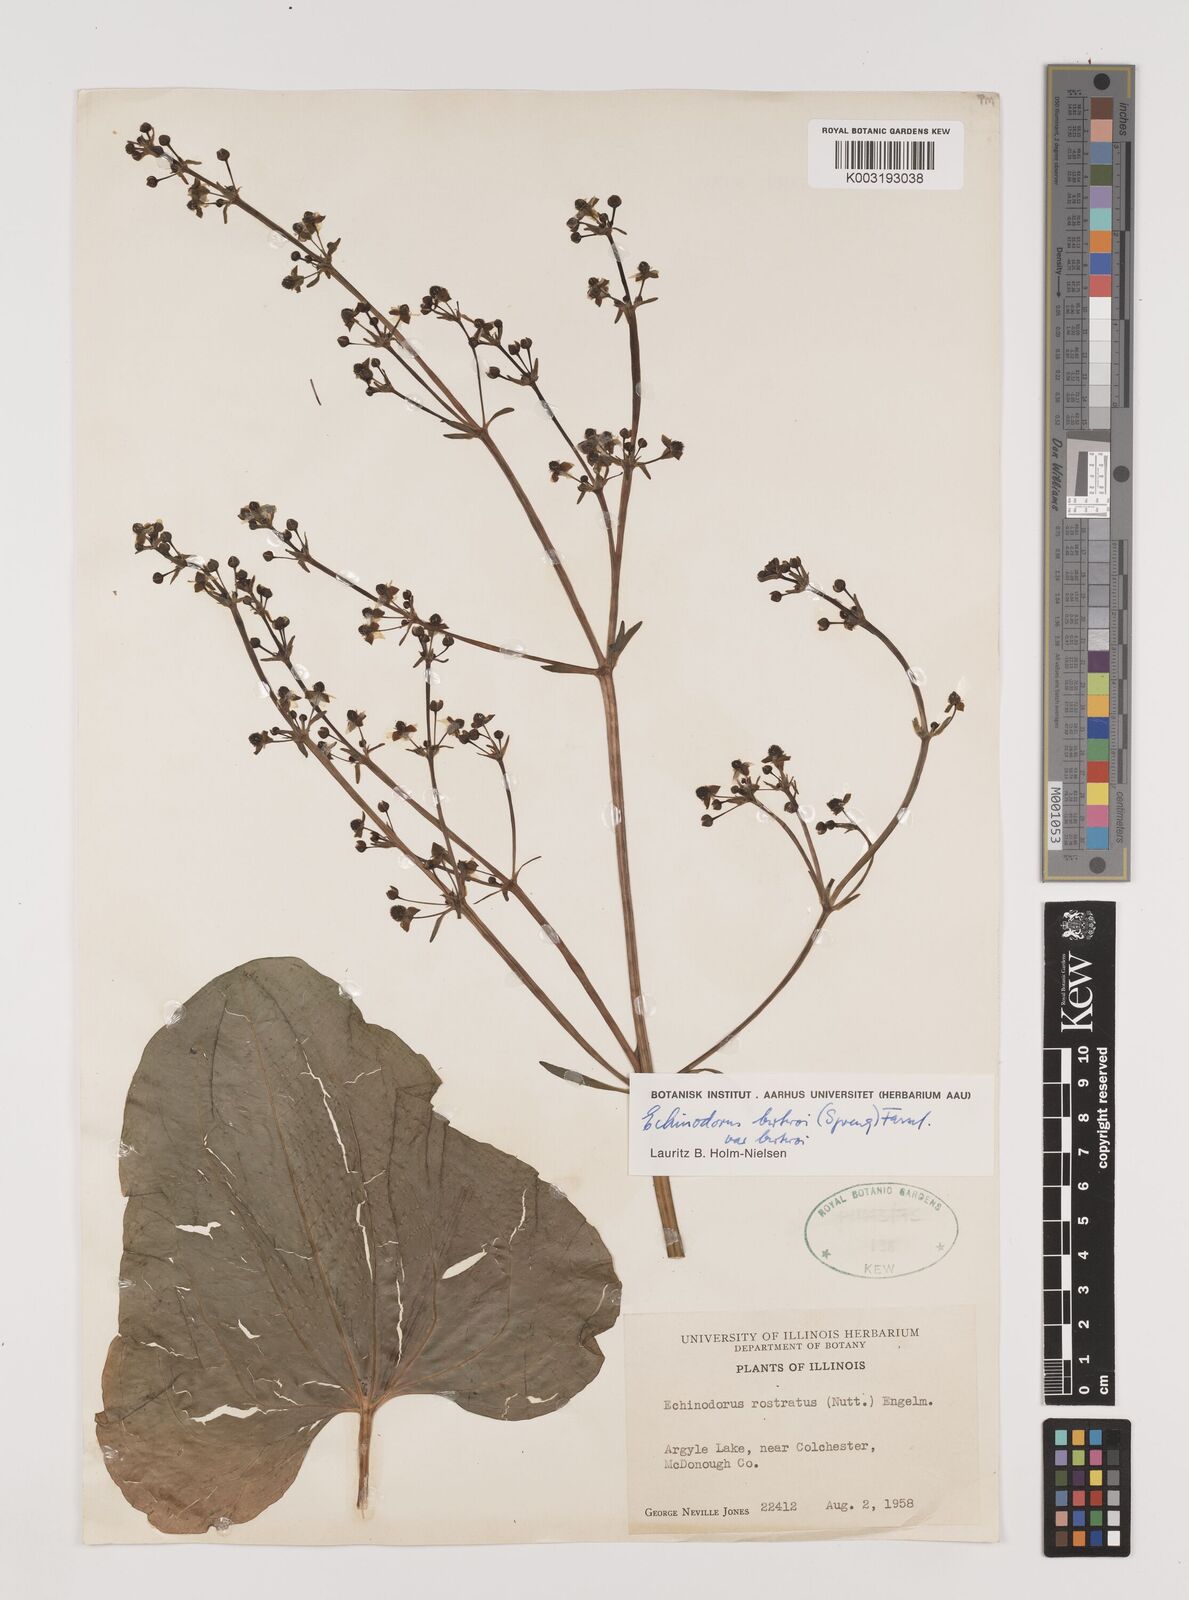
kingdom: Plantae
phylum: Tracheophyta
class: Liliopsida
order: Alismatales
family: Alismataceae
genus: Echinodorus
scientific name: Echinodorus berteroi
